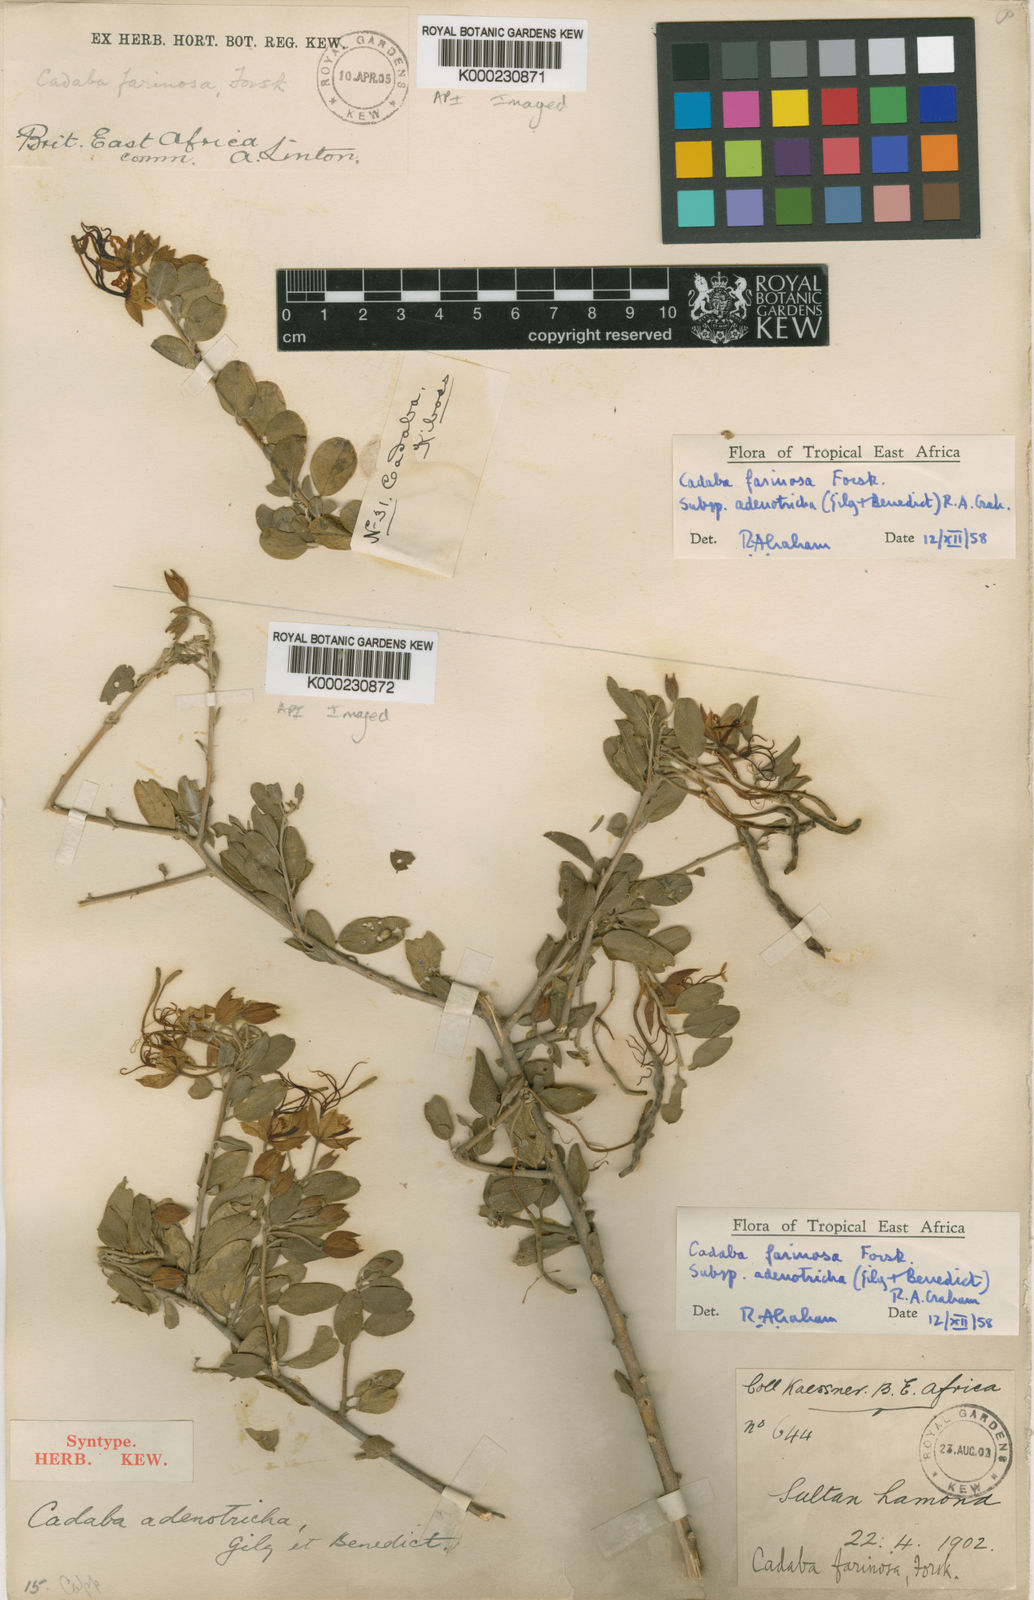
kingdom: Plantae
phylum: Tracheophyta
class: Magnoliopsida
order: Brassicales
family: Capparaceae
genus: Cadaba
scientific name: Cadaba farinosa
